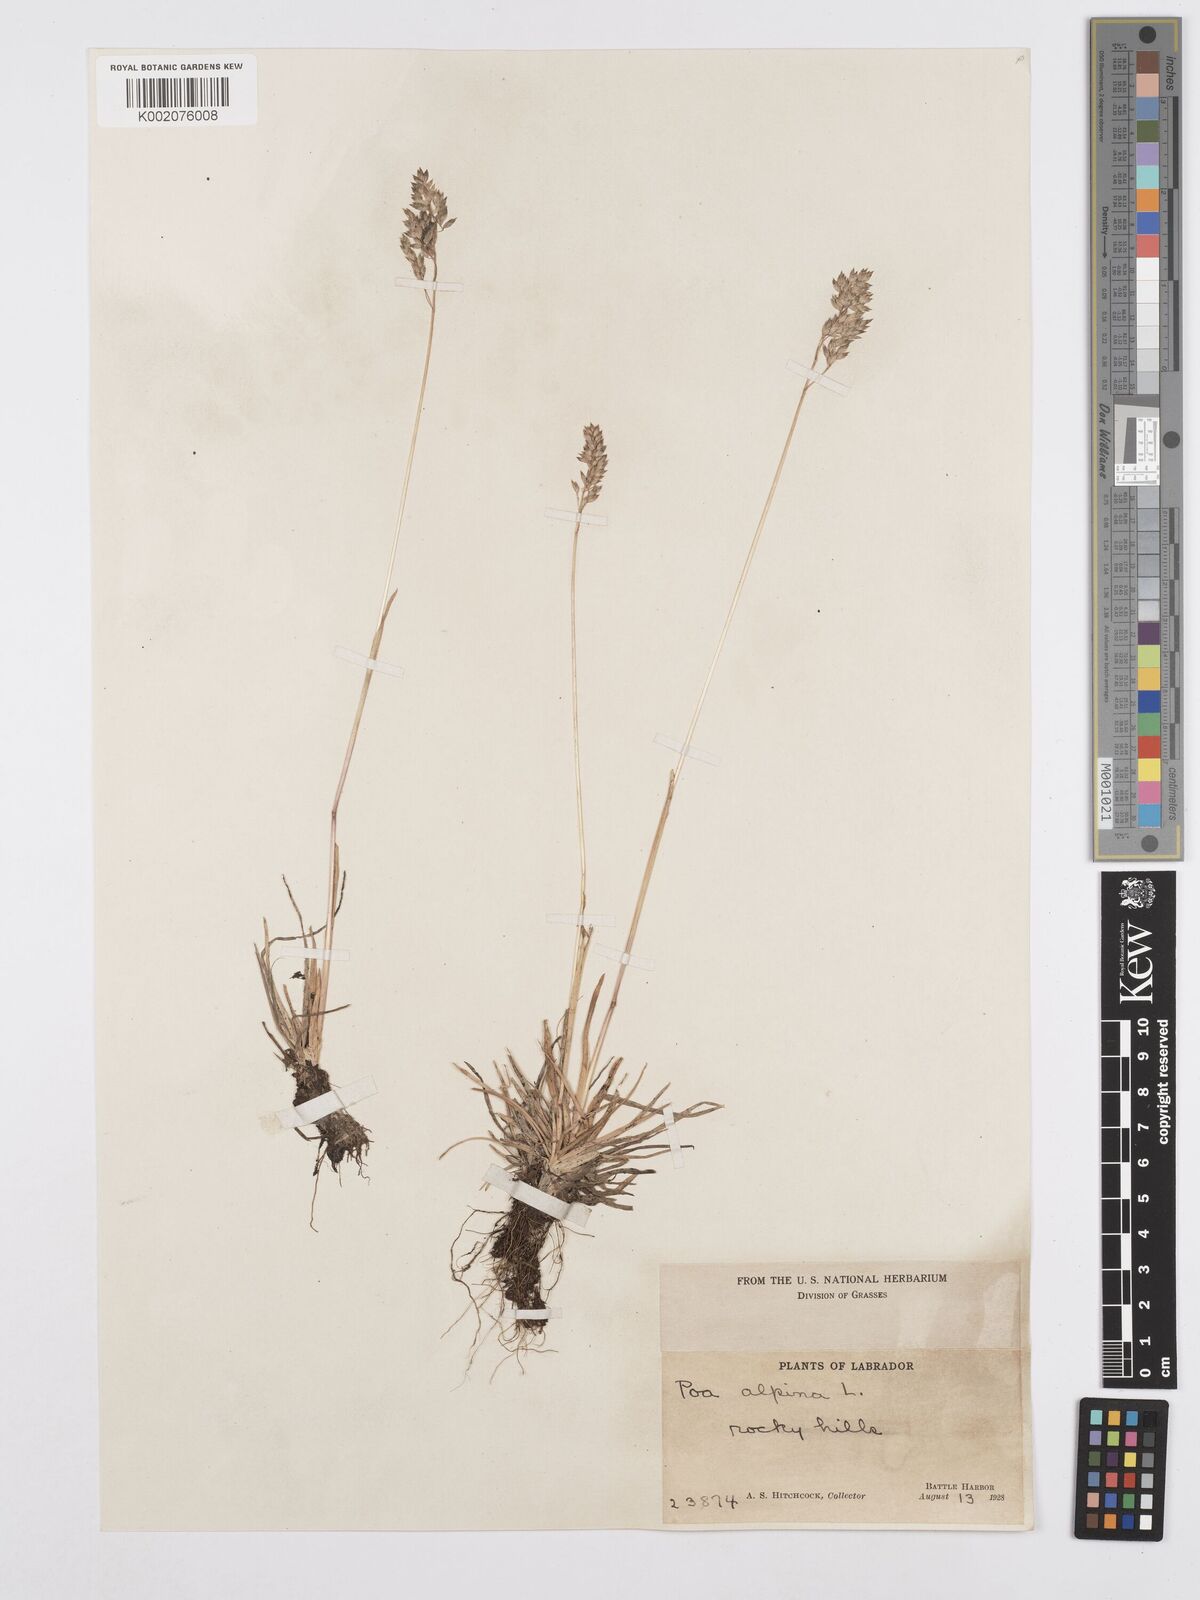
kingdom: Plantae
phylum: Tracheophyta
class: Liliopsida
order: Poales
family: Poaceae
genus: Poa
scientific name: Poa alpina
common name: Alpine bluegrass
